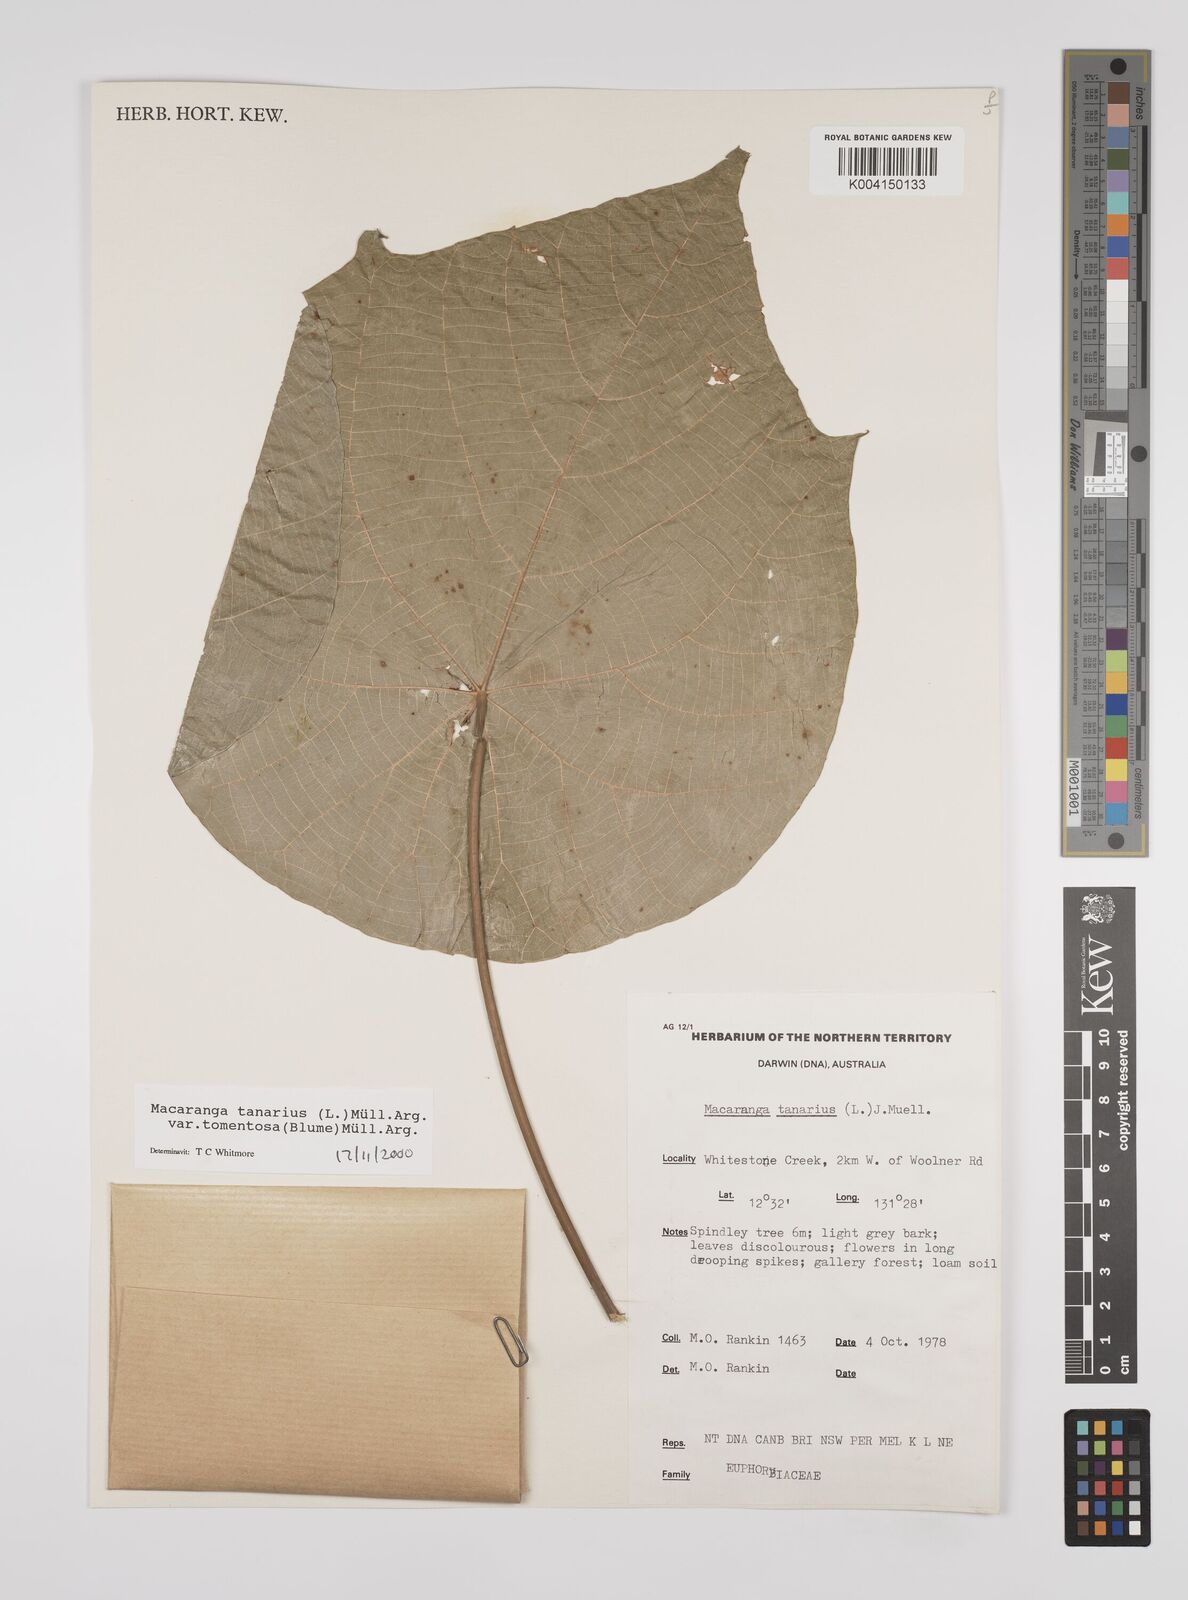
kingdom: Plantae
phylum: Tracheophyta
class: Magnoliopsida
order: Malpighiales
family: Euphorbiaceae
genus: Macaranga
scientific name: Macaranga tanarius
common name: Parasol leaf tree
